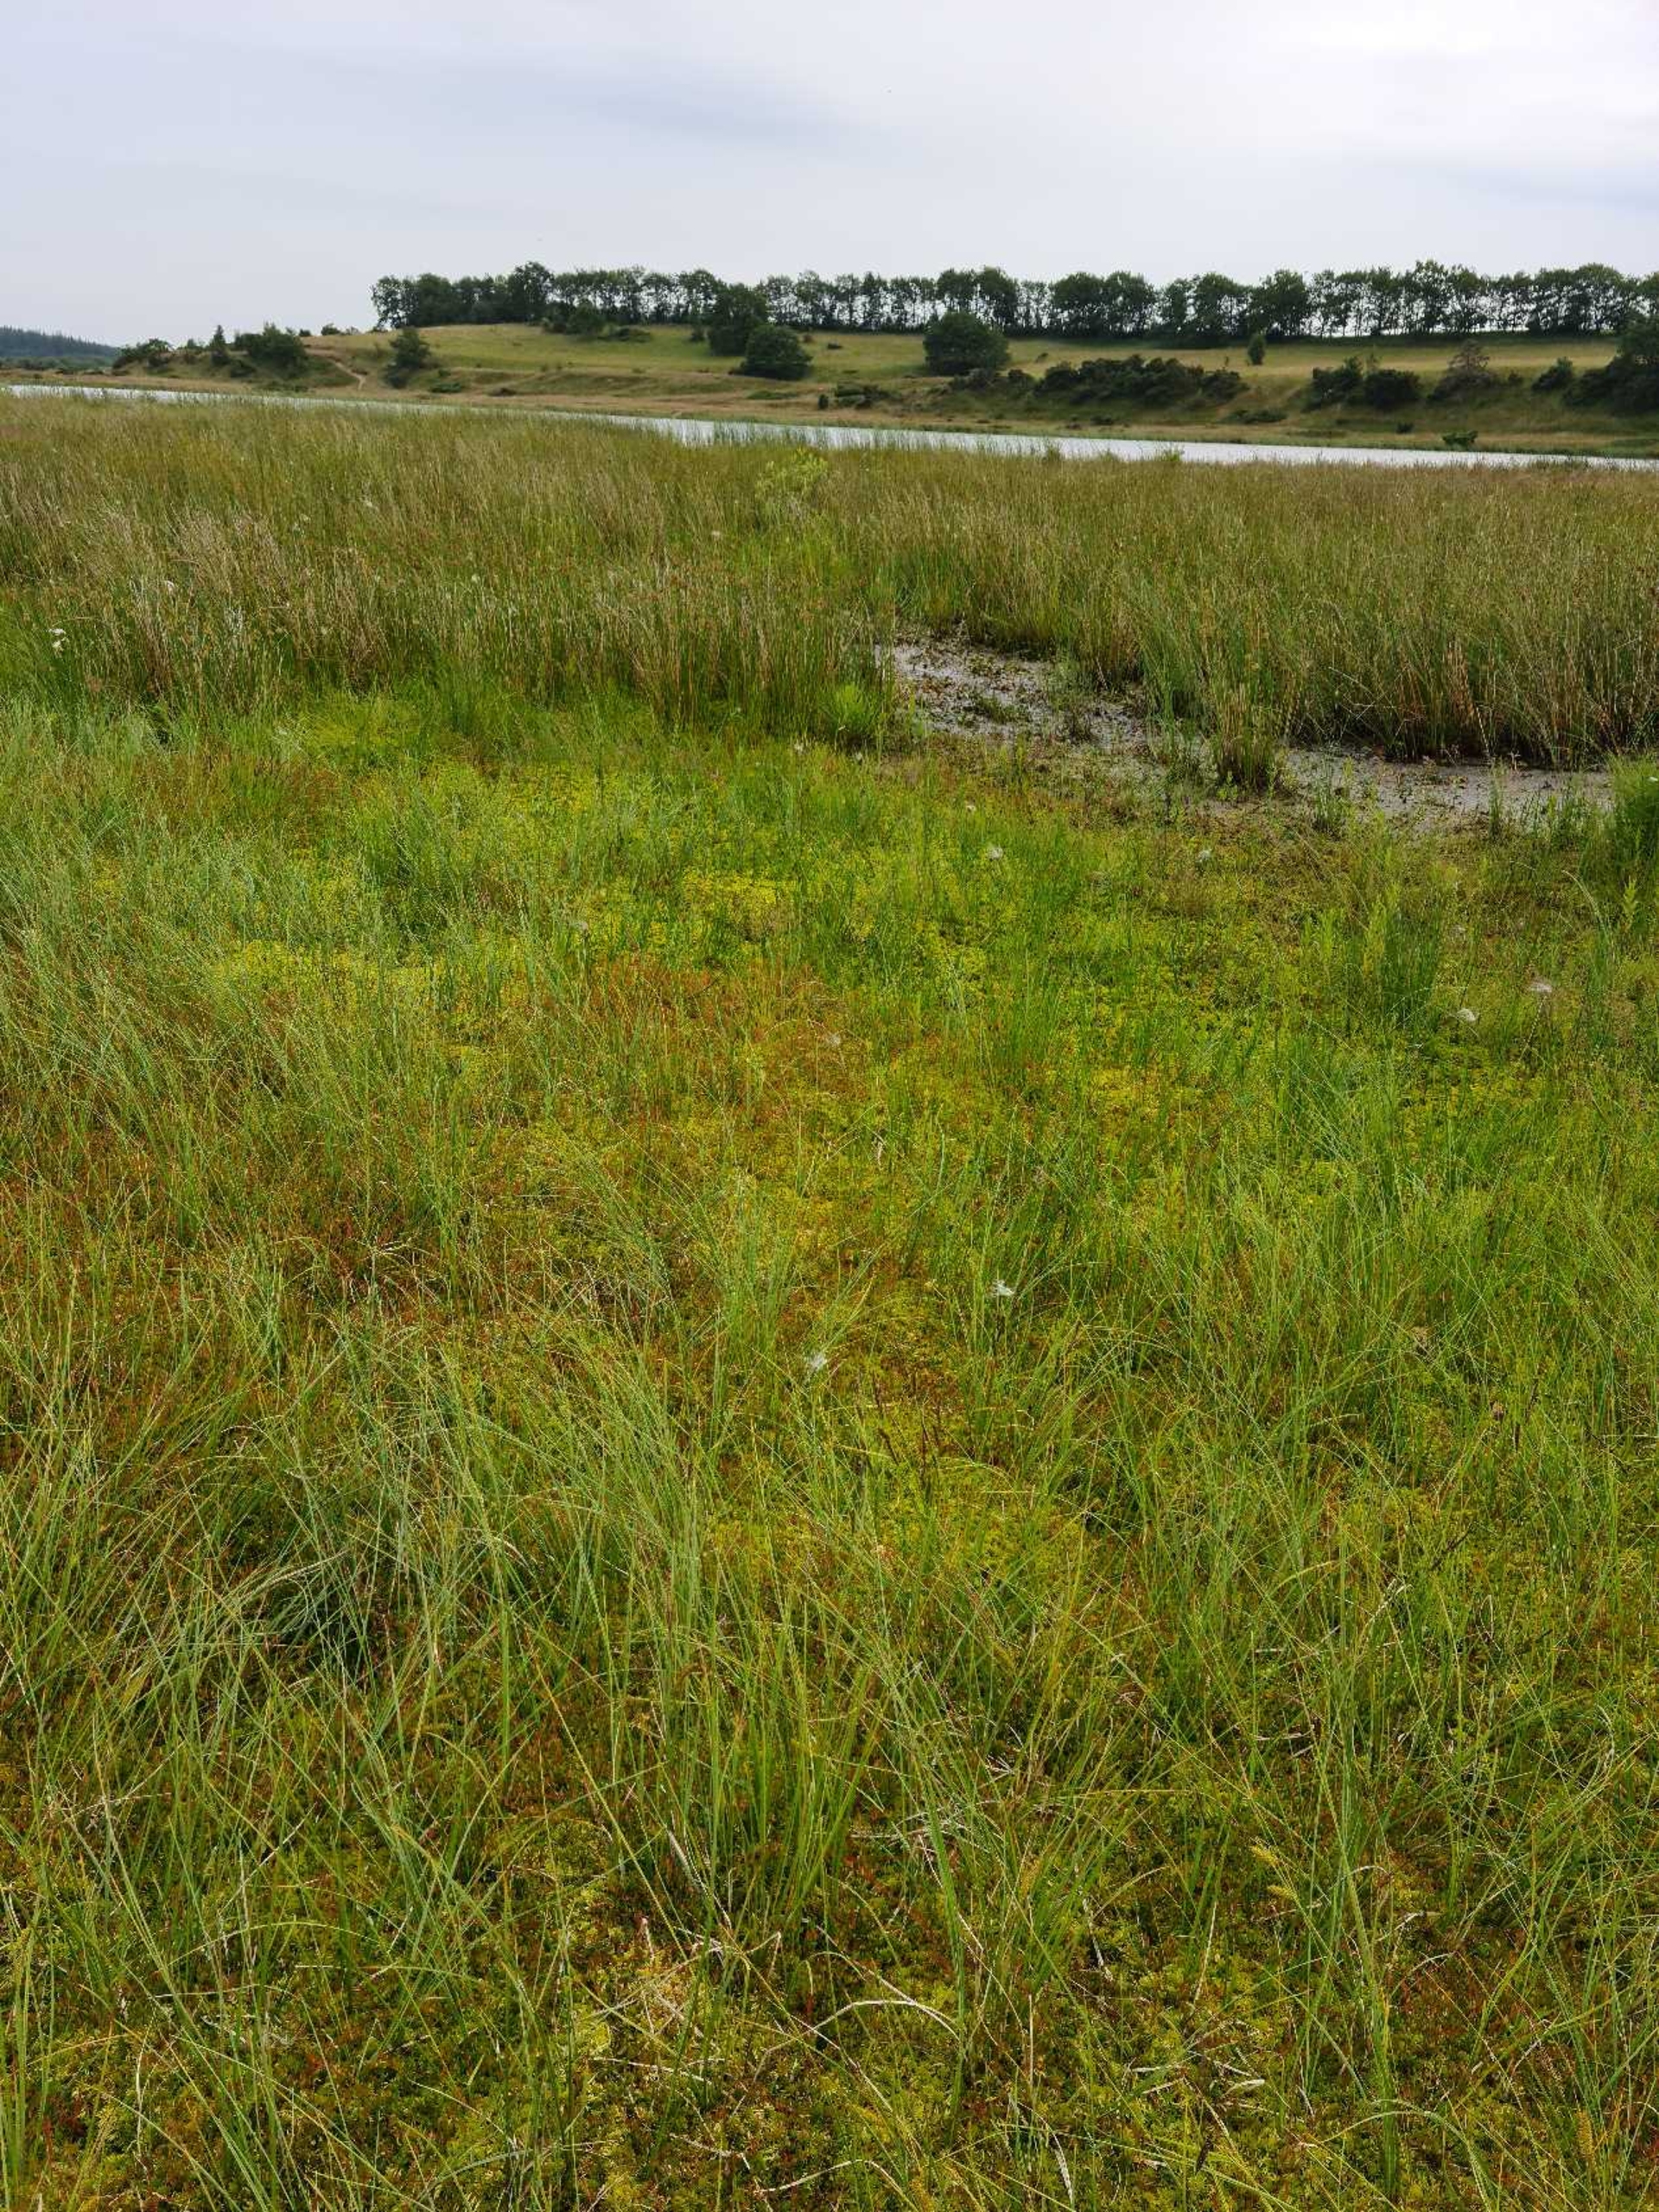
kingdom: Plantae
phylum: Tracheophyta
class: Magnoliopsida
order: Caryophyllales
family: Droseraceae
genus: Drosera
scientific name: Drosera rotundifolia
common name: Rundbladet soldug
